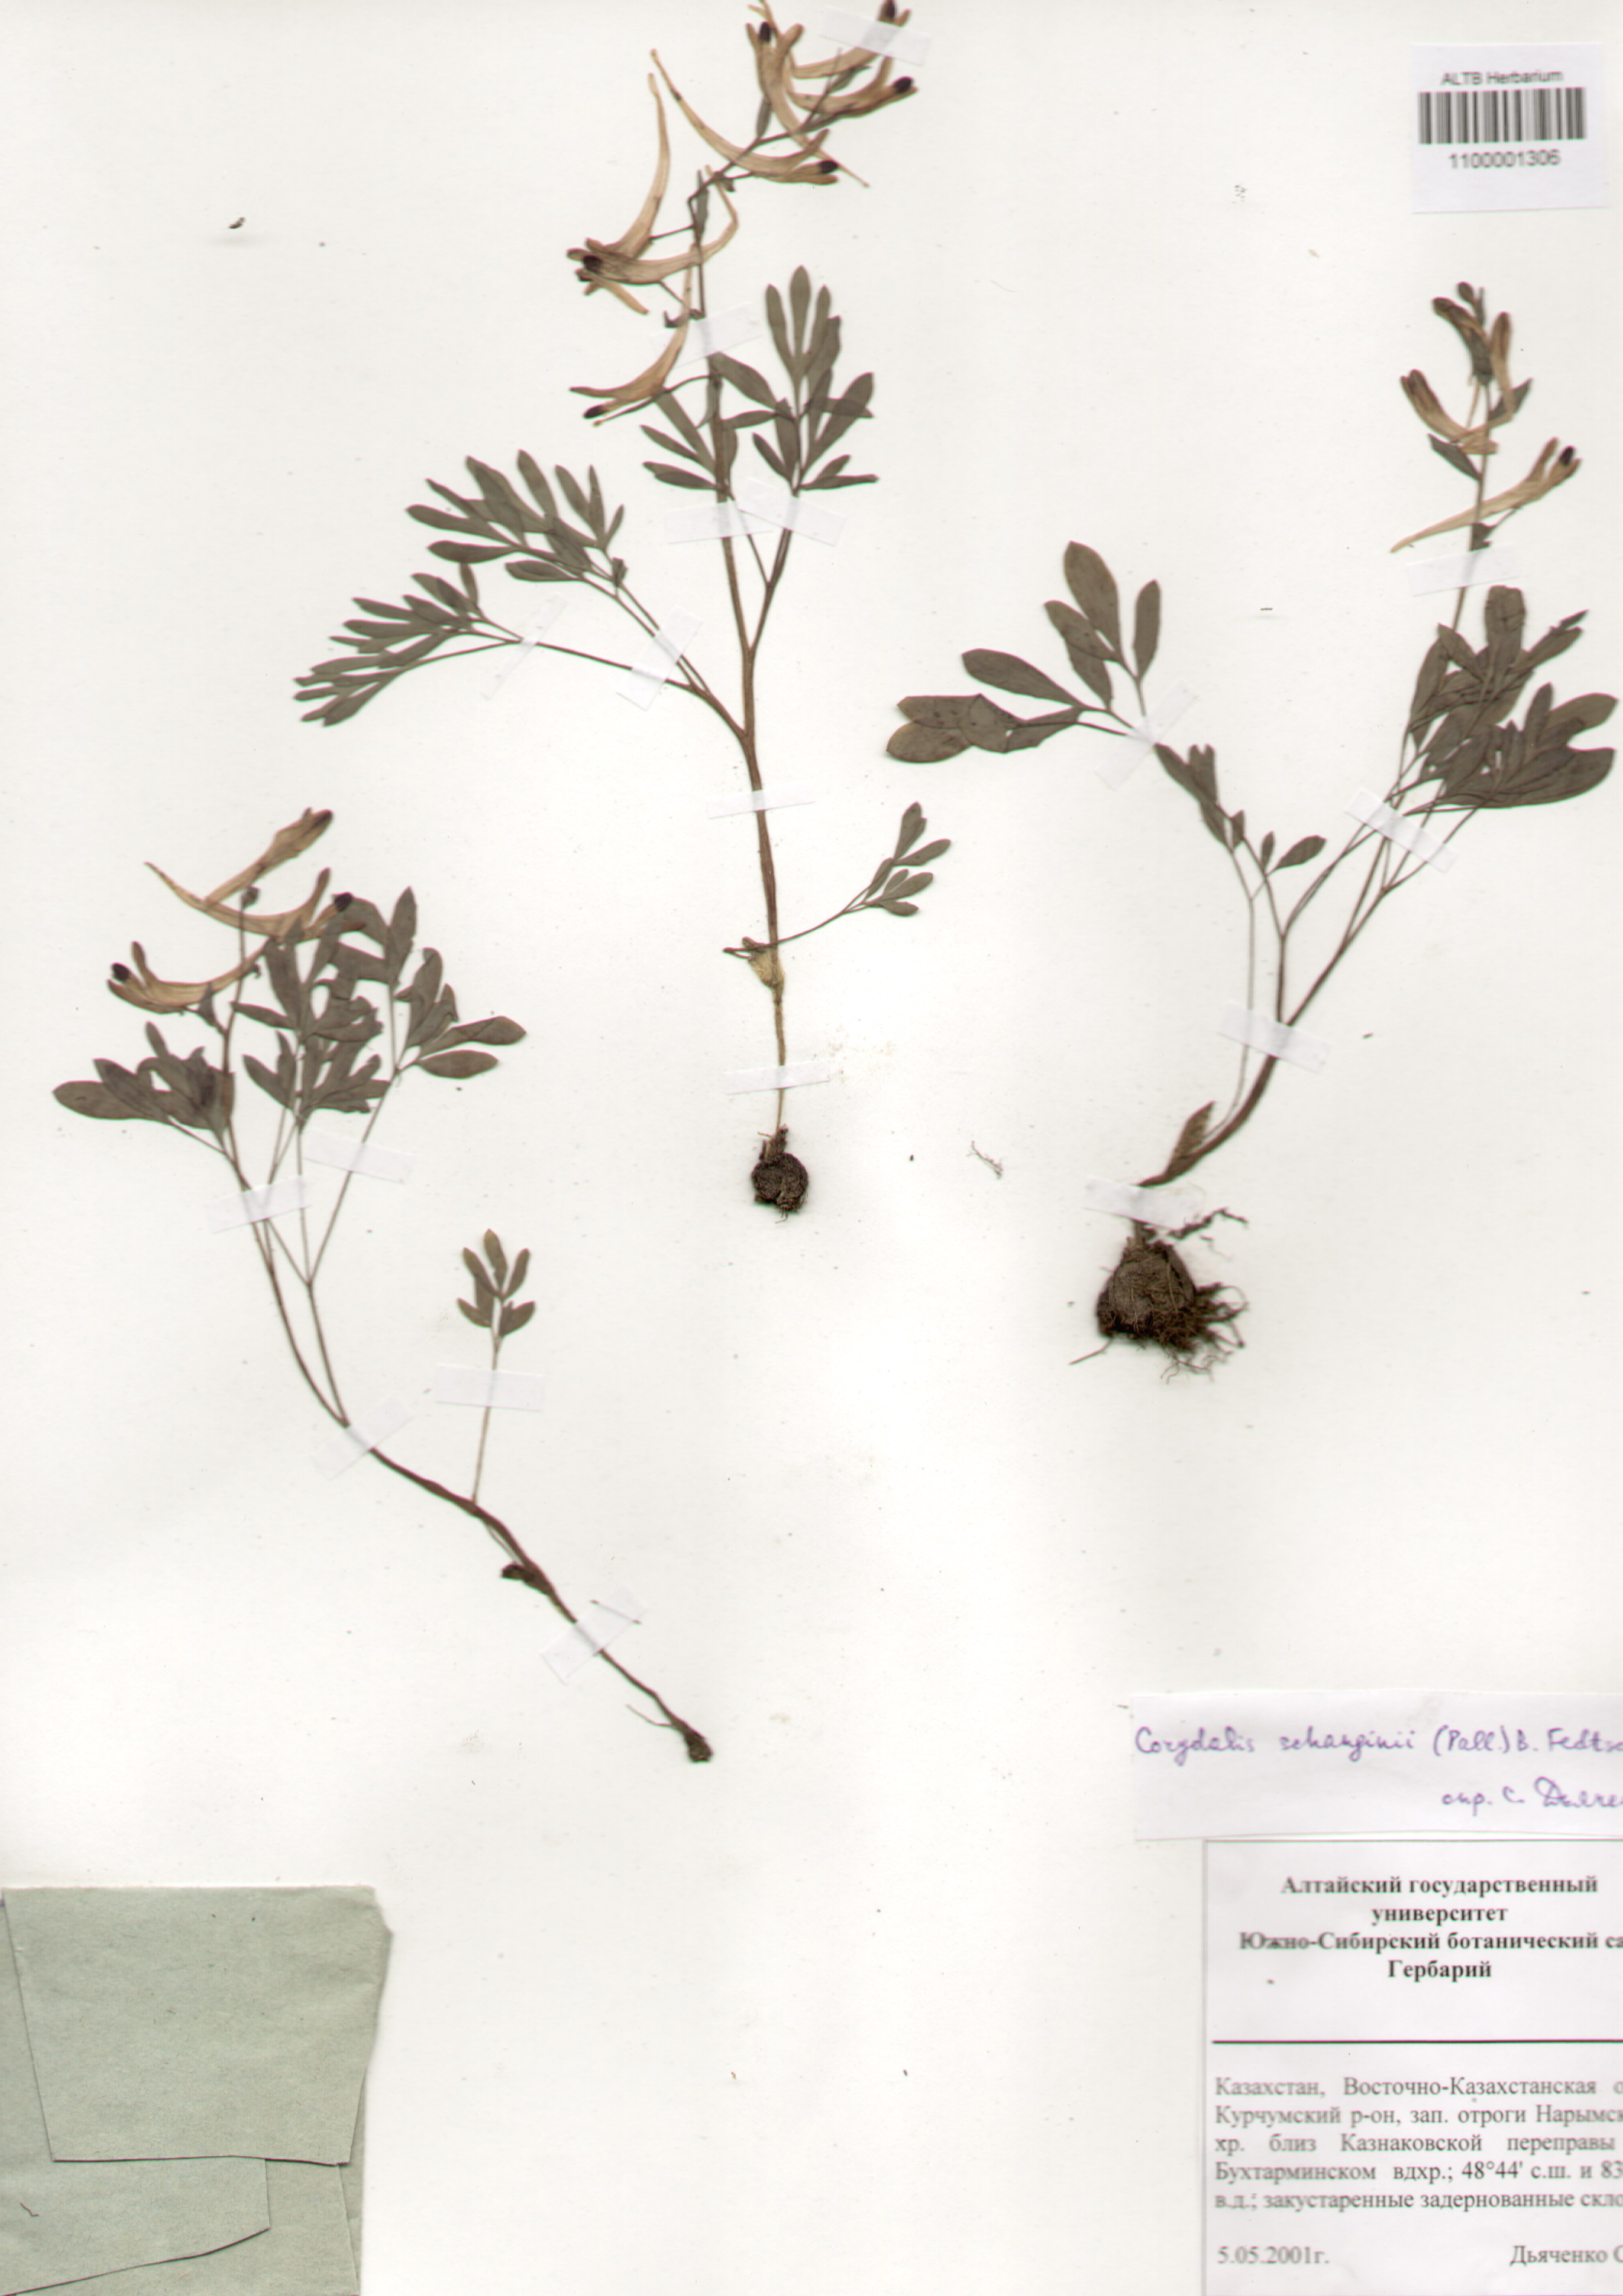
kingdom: Plantae
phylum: Tracheophyta
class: Magnoliopsida
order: Ranunculales
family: Papaveraceae
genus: Corydalis
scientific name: Corydalis schanginii
